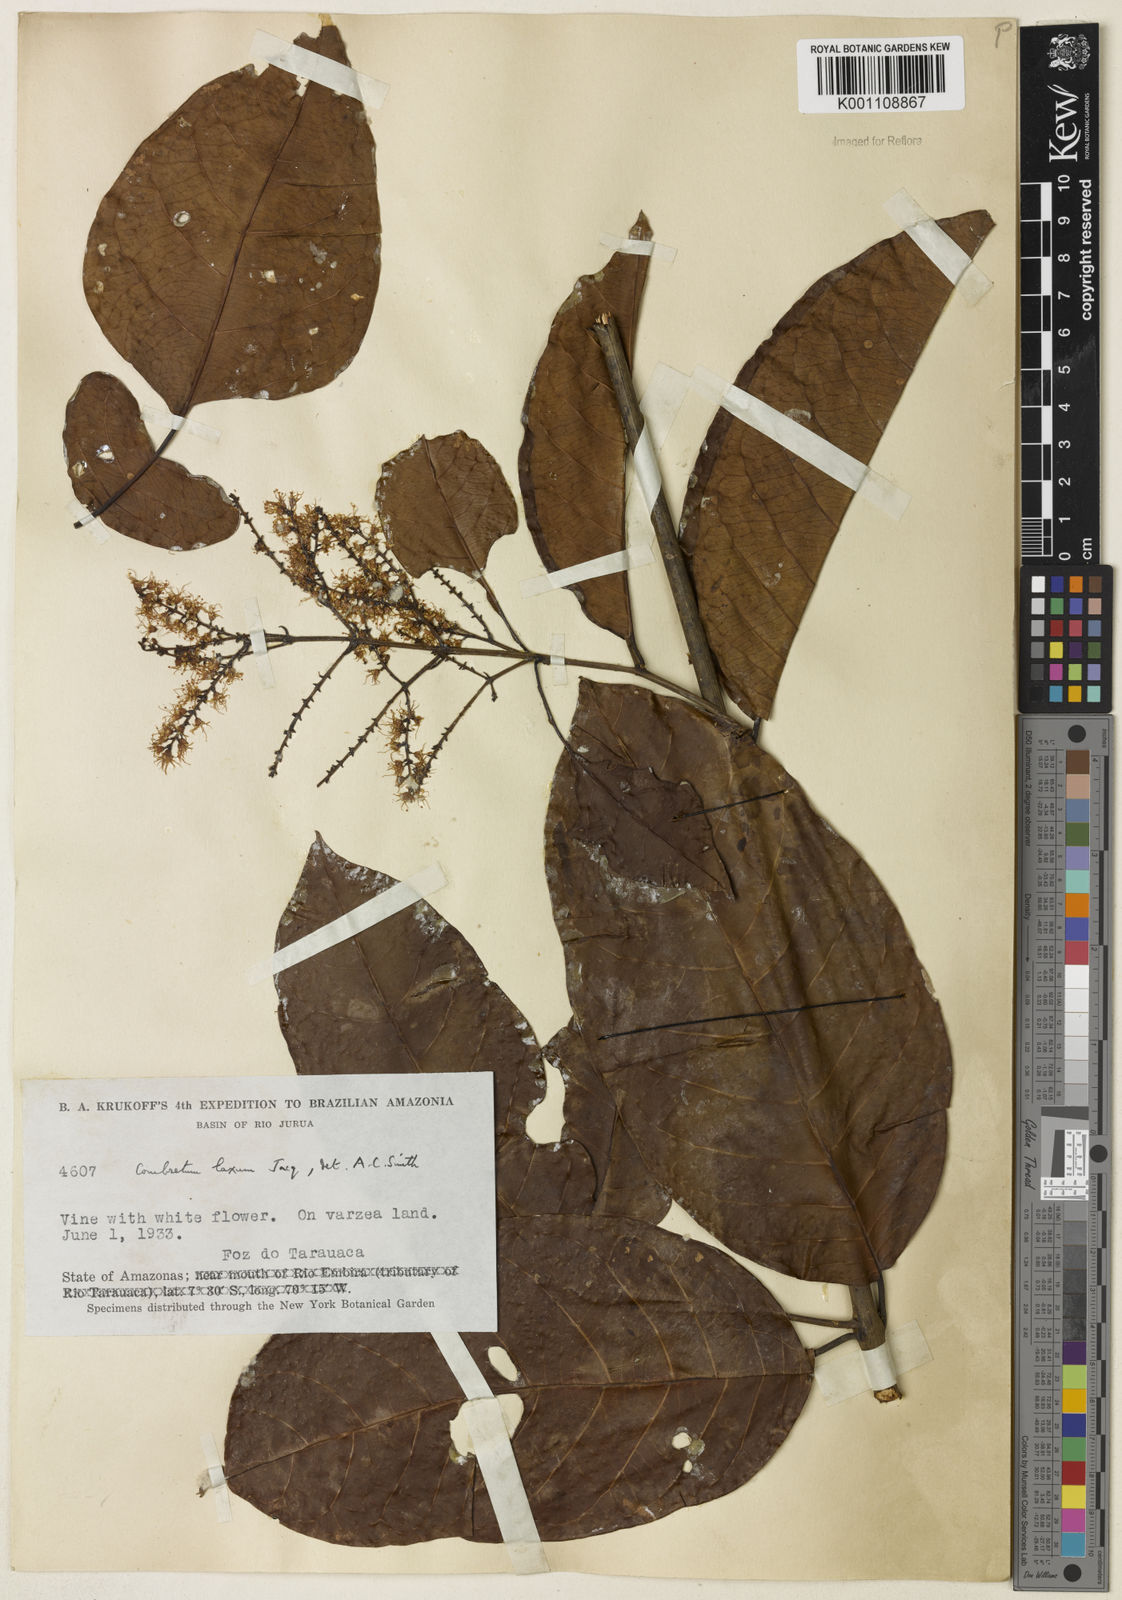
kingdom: Plantae
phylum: Tracheophyta
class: Magnoliopsida
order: Myrtales
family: Combretaceae
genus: Combretum
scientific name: Combretum laxum
